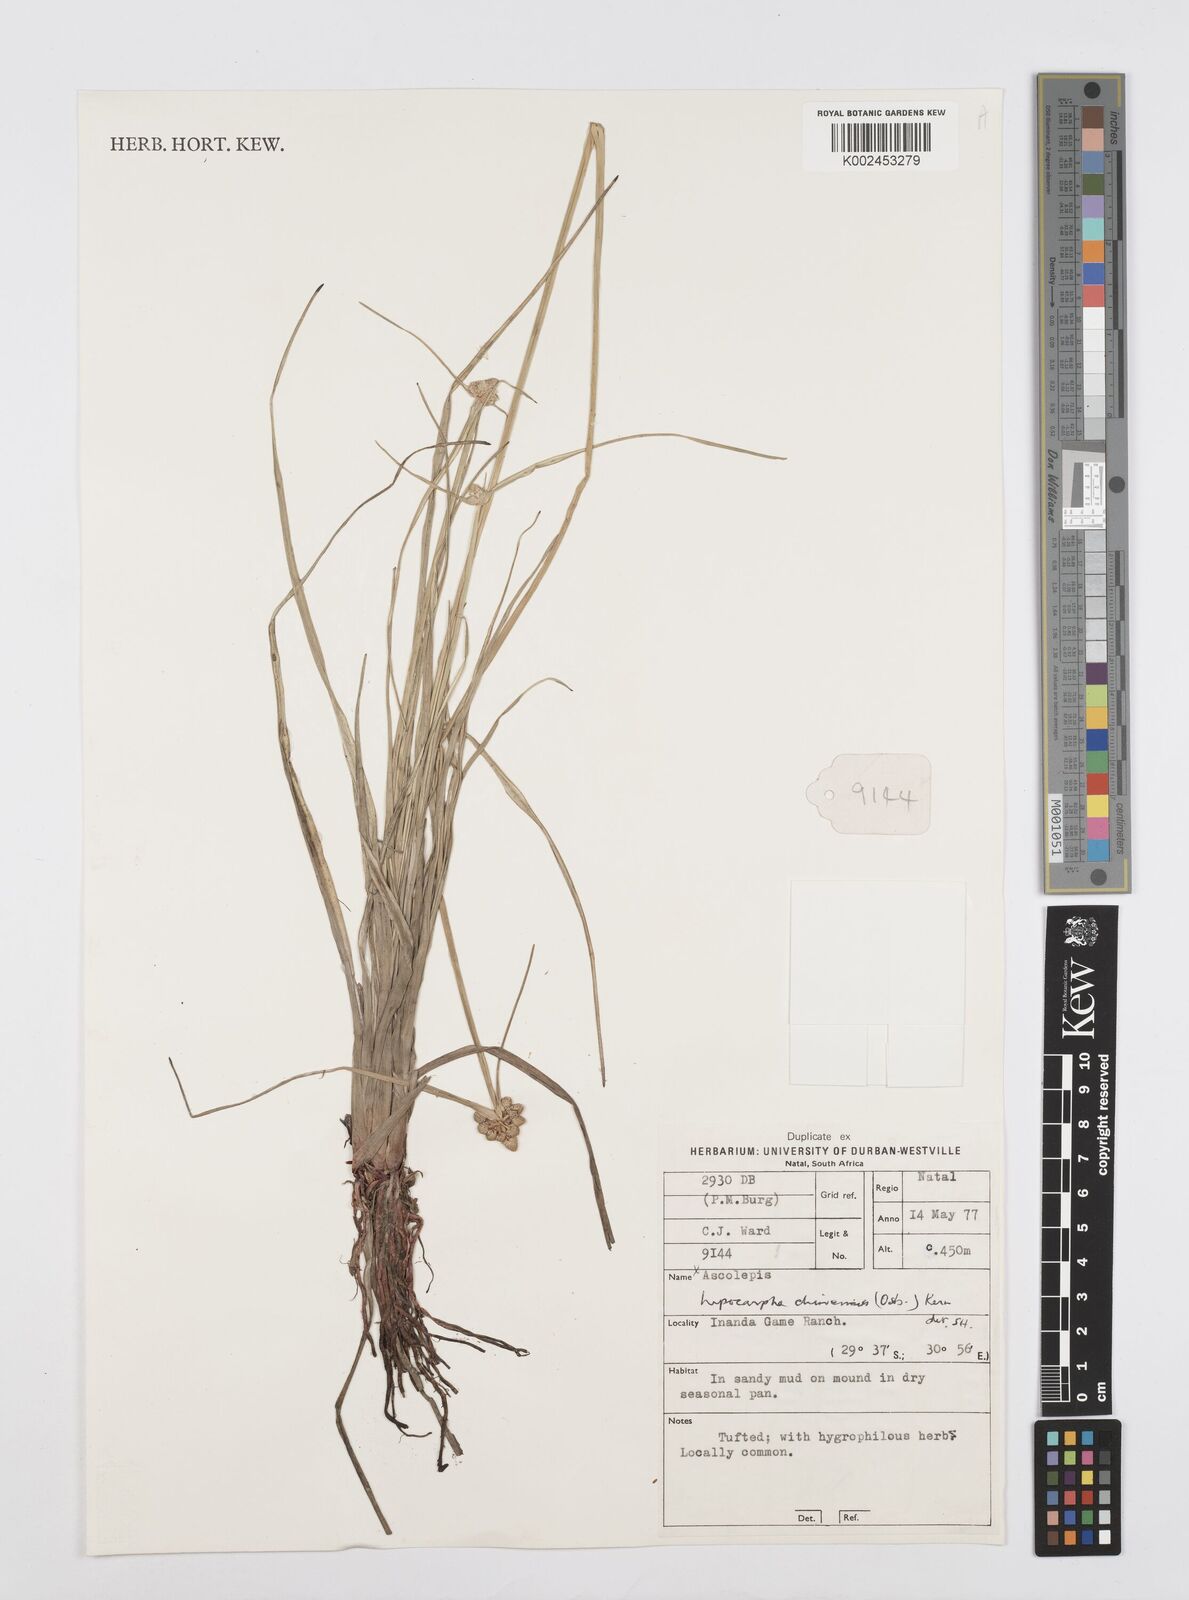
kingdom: Plantae
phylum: Tracheophyta
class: Liliopsida
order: Poales
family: Cyperaceae
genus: Cyperus
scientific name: Cyperus albescens
